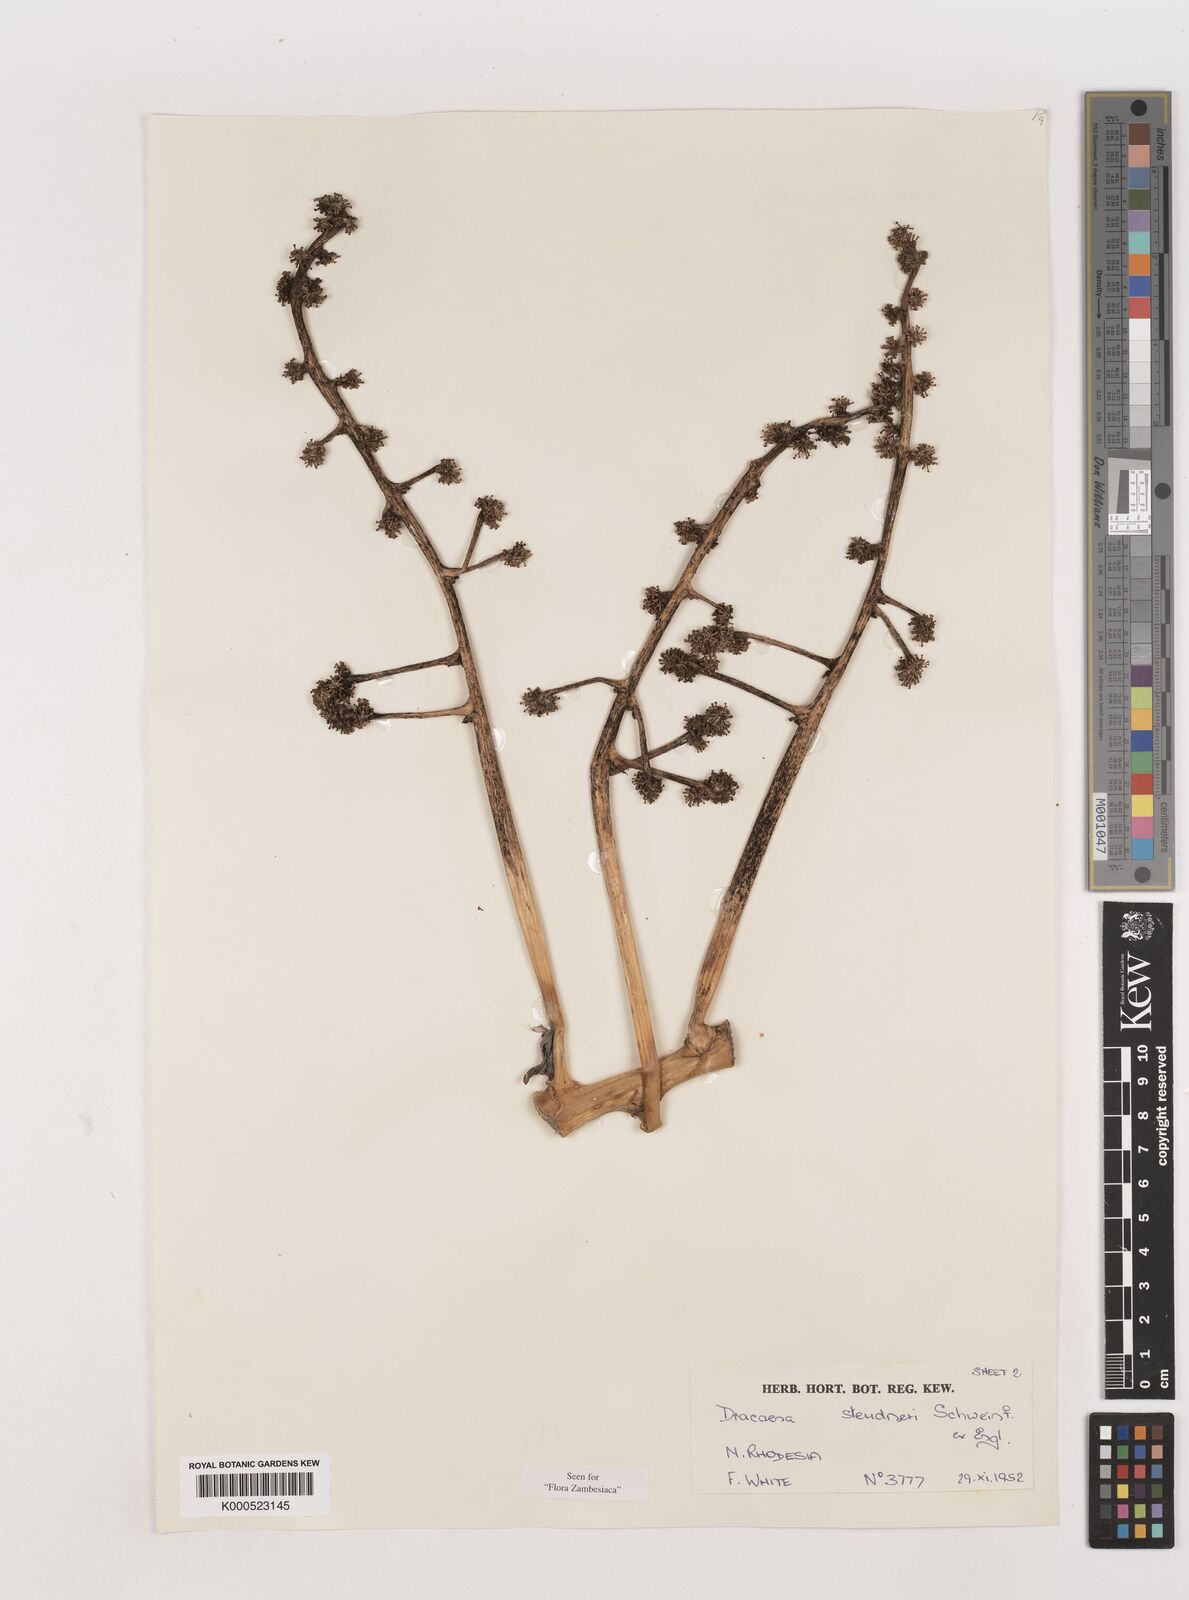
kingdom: Plantae
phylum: Tracheophyta
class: Liliopsida
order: Asparagales
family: Asparagaceae
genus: Dracaena
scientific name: Dracaena steudneri
